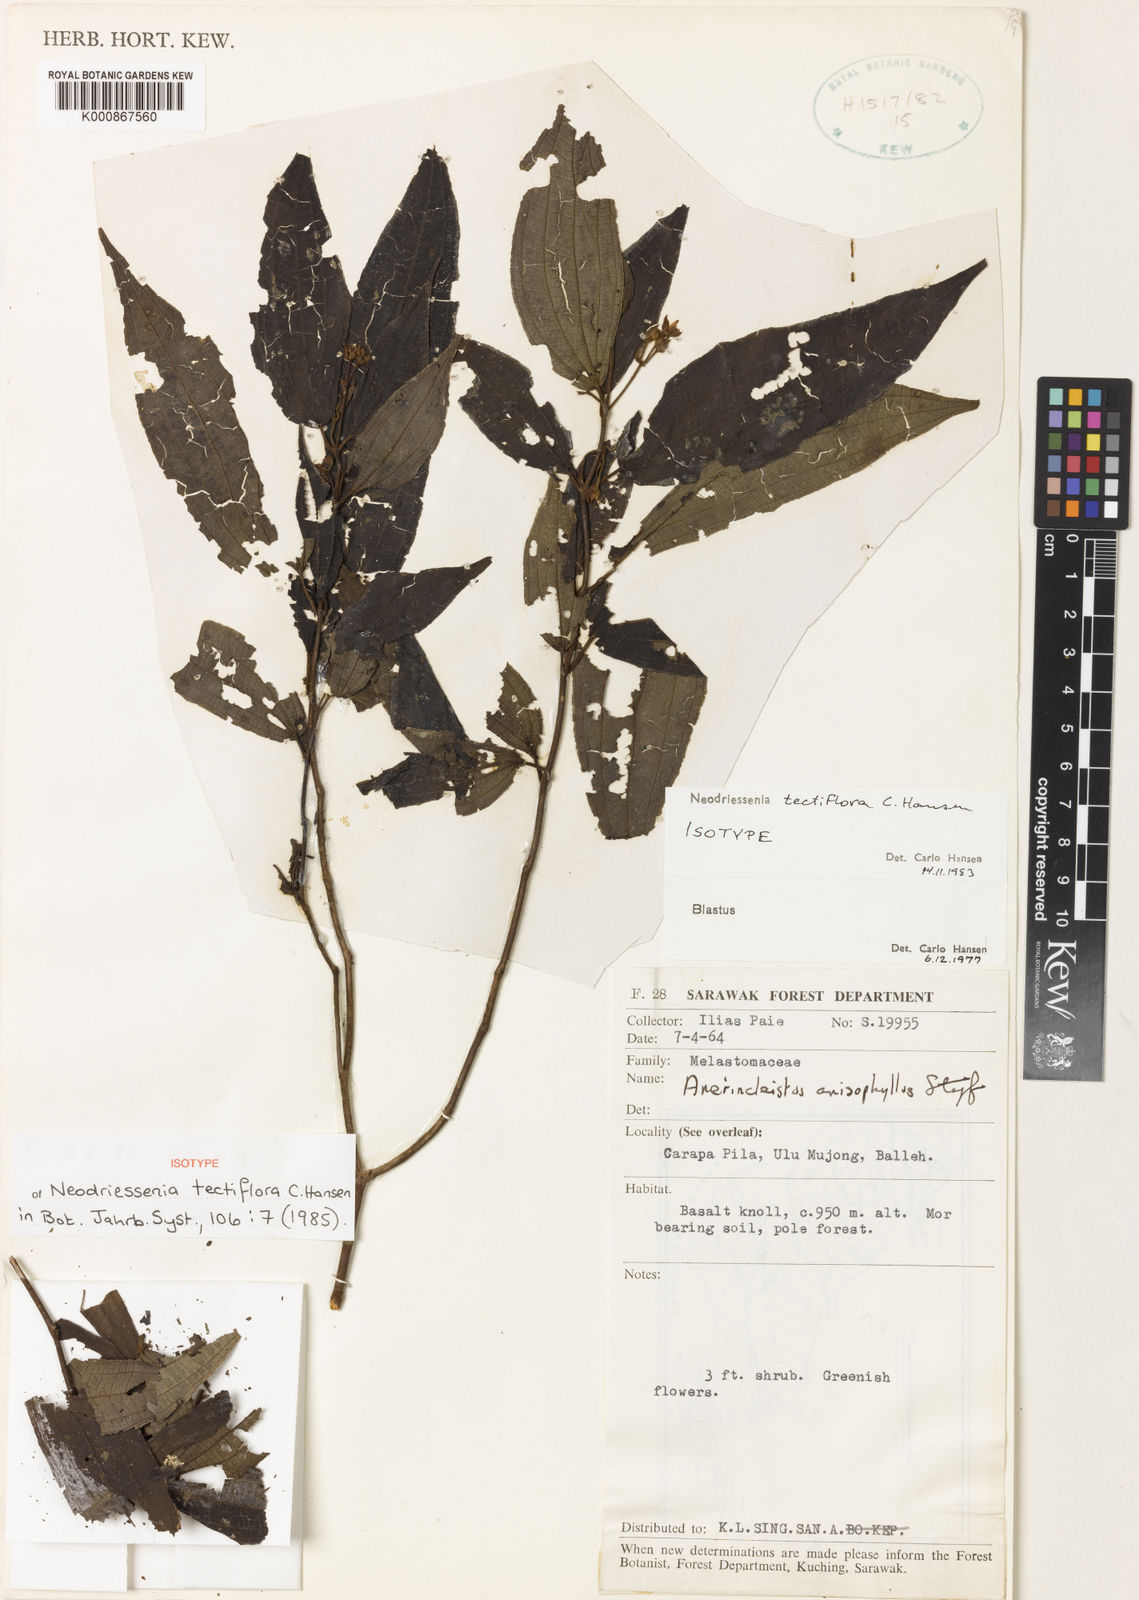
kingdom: Plantae
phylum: Tracheophyta
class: Magnoliopsida
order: Myrtales
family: Melastomataceae
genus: Neodriessenia
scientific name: Neodriessenia tectiflora
